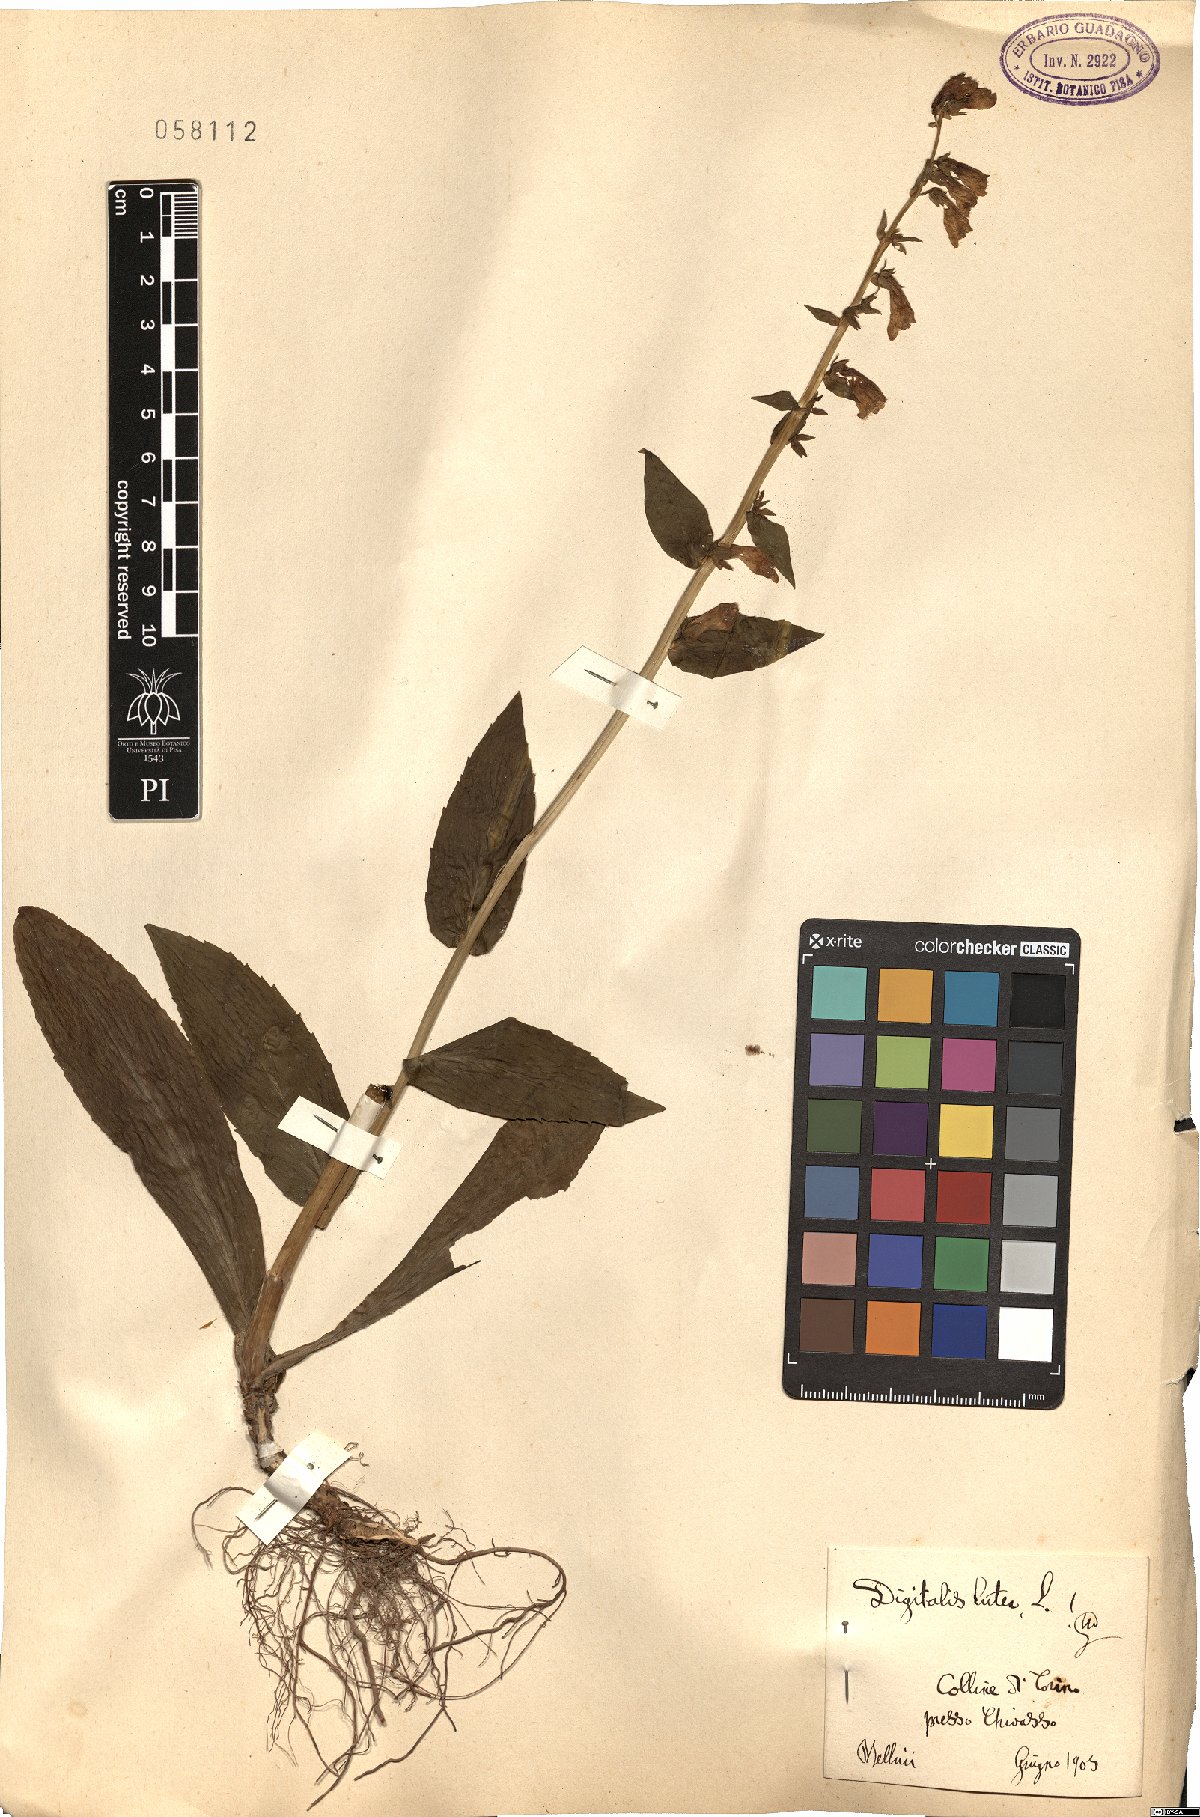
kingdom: Plantae
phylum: Tracheophyta
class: Magnoliopsida
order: Lamiales
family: Plantaginaceae
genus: Digitalis
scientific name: Digitalis lutea
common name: Straw foxglove
